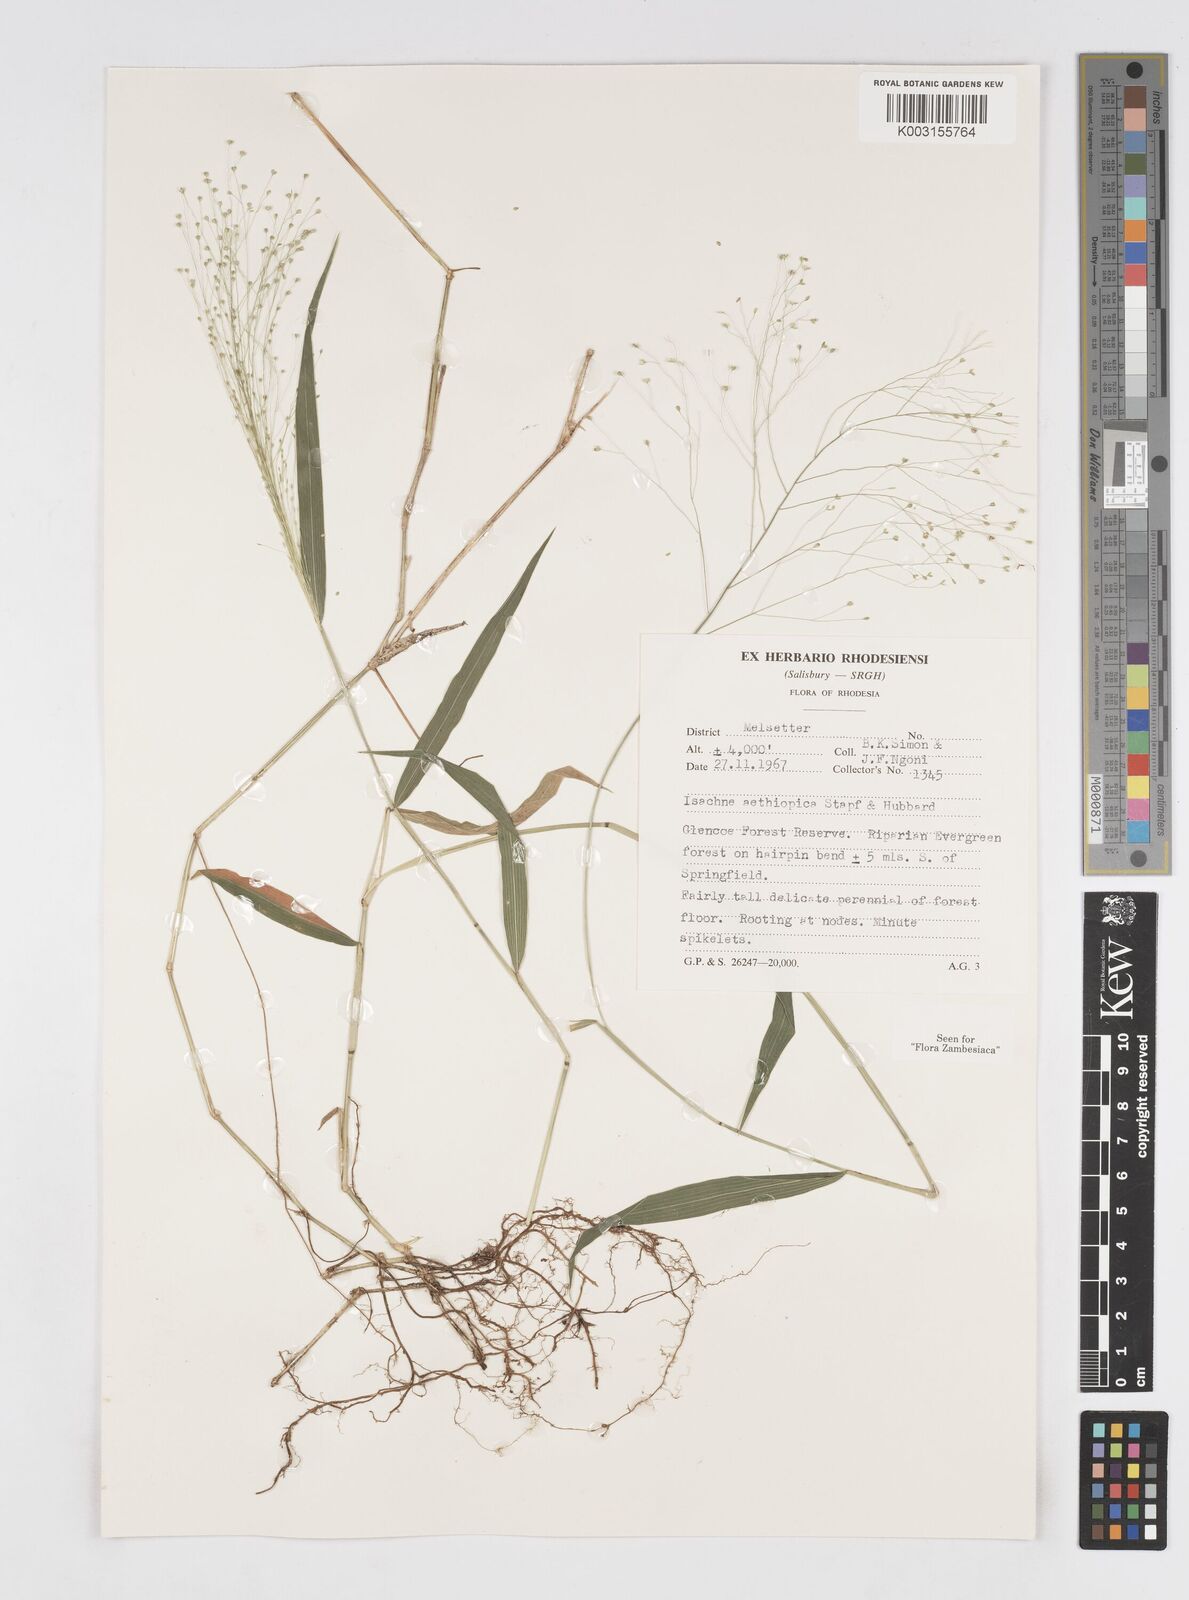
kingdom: Plantae
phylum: Tracheophyta
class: Liliopsida
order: Poales
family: Poaceae
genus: Isachne
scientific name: Isachne mauritiana
